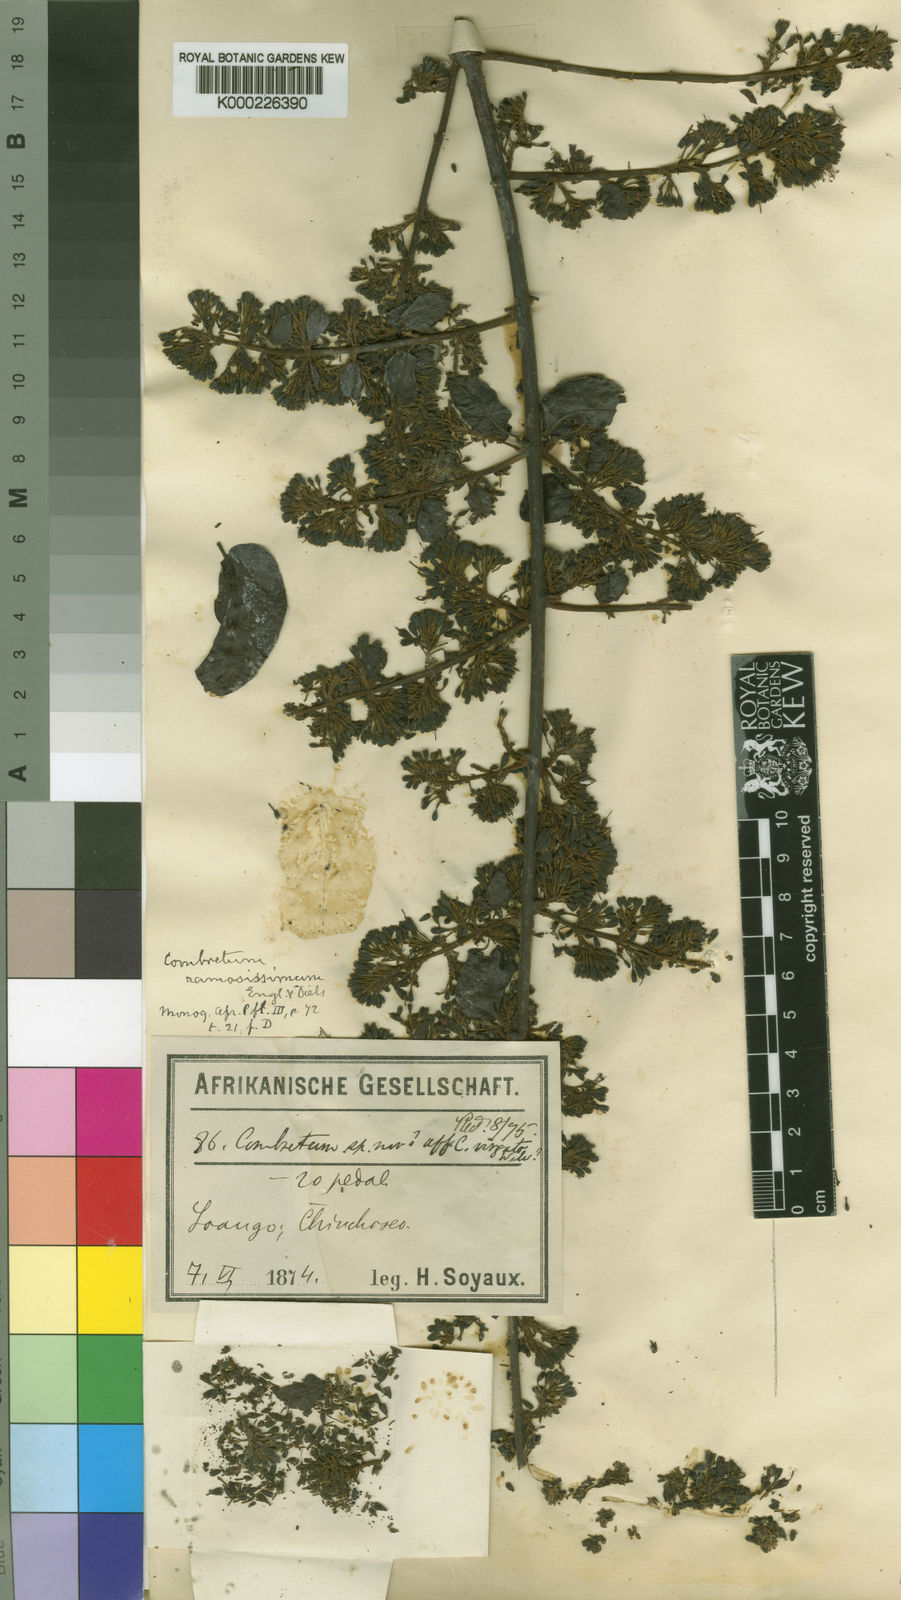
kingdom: Plantae
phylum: Tracheophyta
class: Magnoliopsida
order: Myrtales
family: Combretaceae
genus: Combretum
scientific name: Combretum paniculatum
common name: Fire vine
